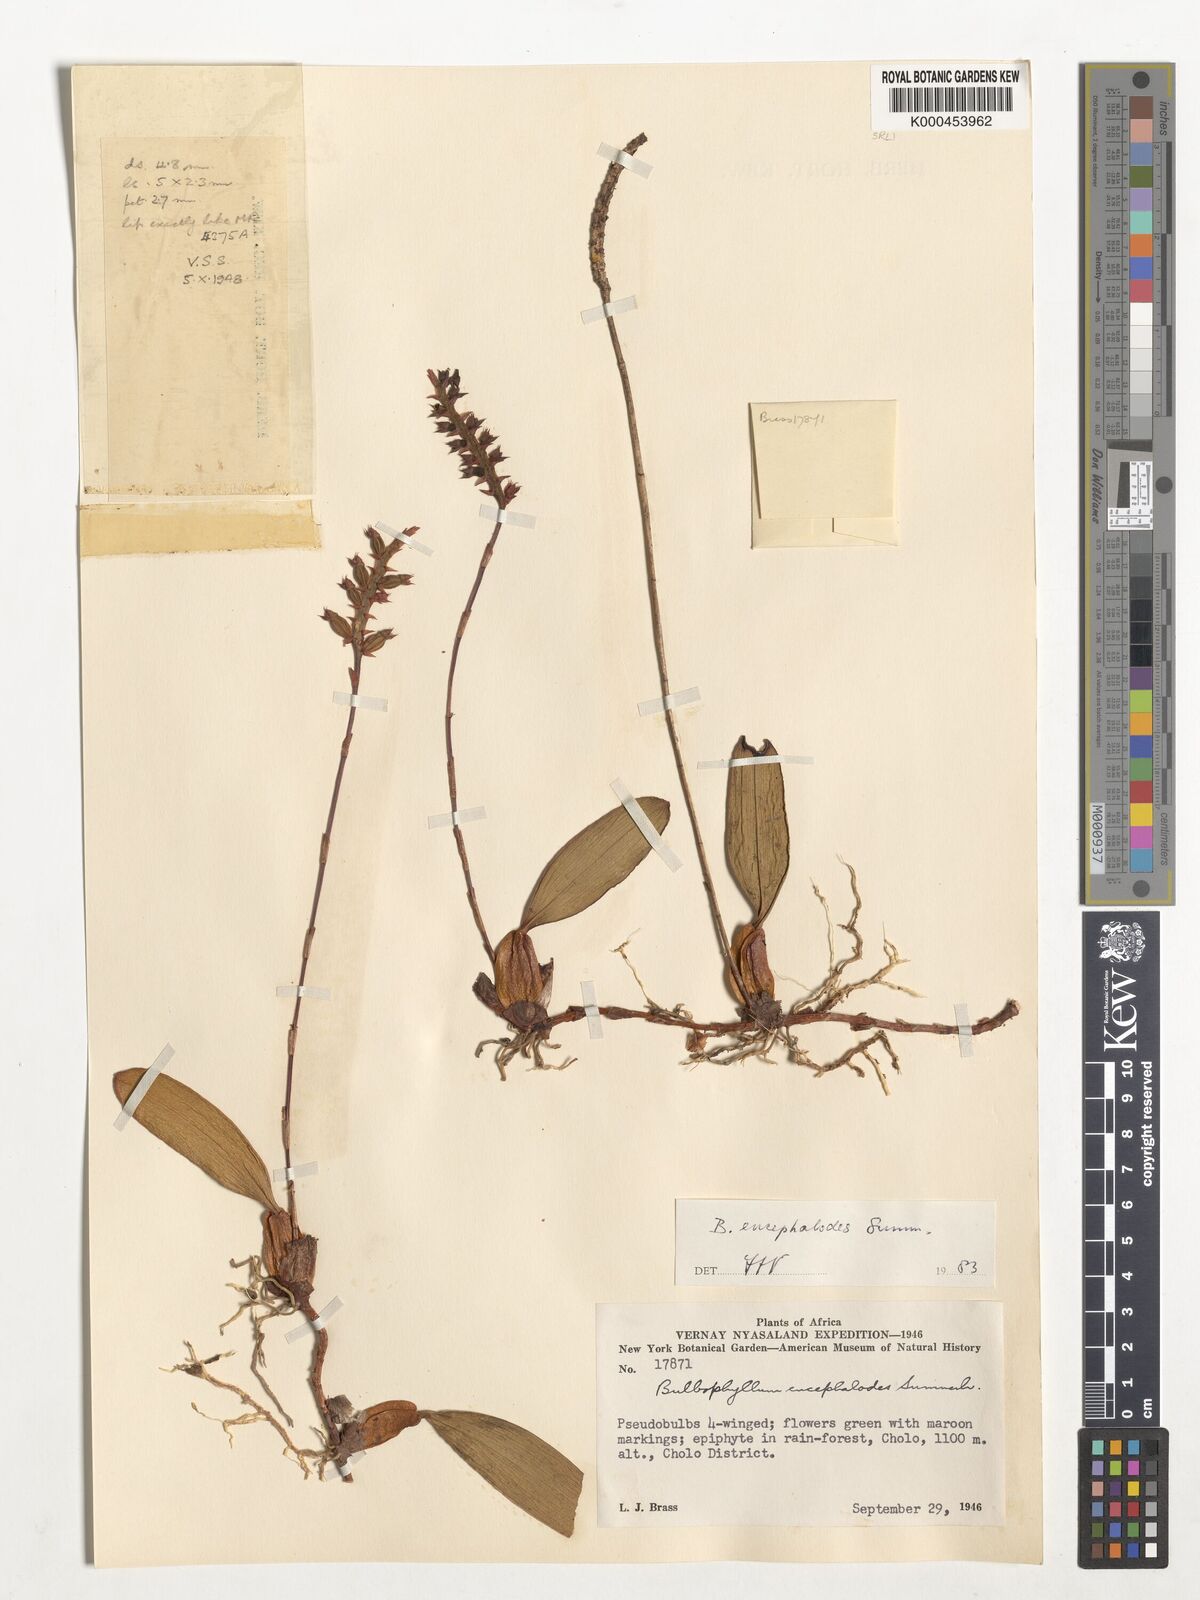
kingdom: Plantae
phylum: Tracheophyta
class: Liliopsida
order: Asparagales
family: Orchidaceae
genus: Bulbophyllum
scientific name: Bulbophyllum encephalodes
